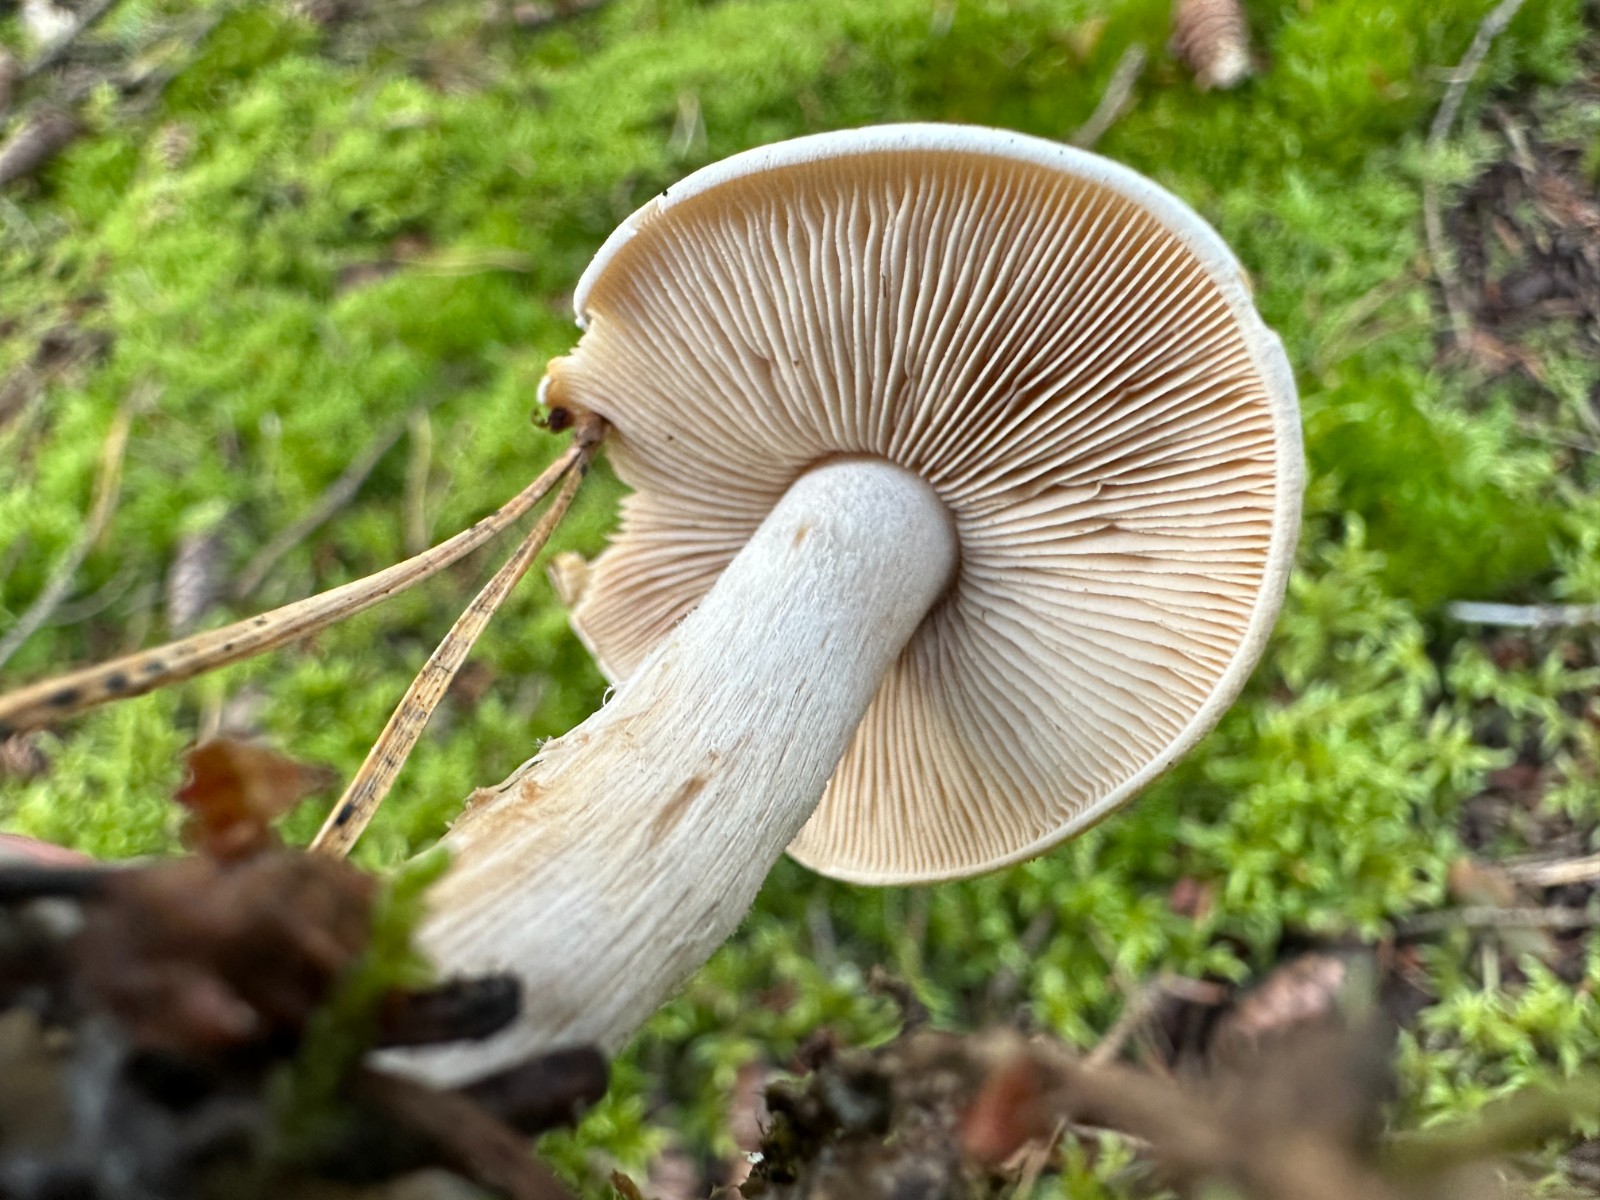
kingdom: Fungi
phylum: Basidiomycota
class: Agaricomycetes
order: Agaricales
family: Hymenogastraceae
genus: Hebeloma
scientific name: Hebeloma
